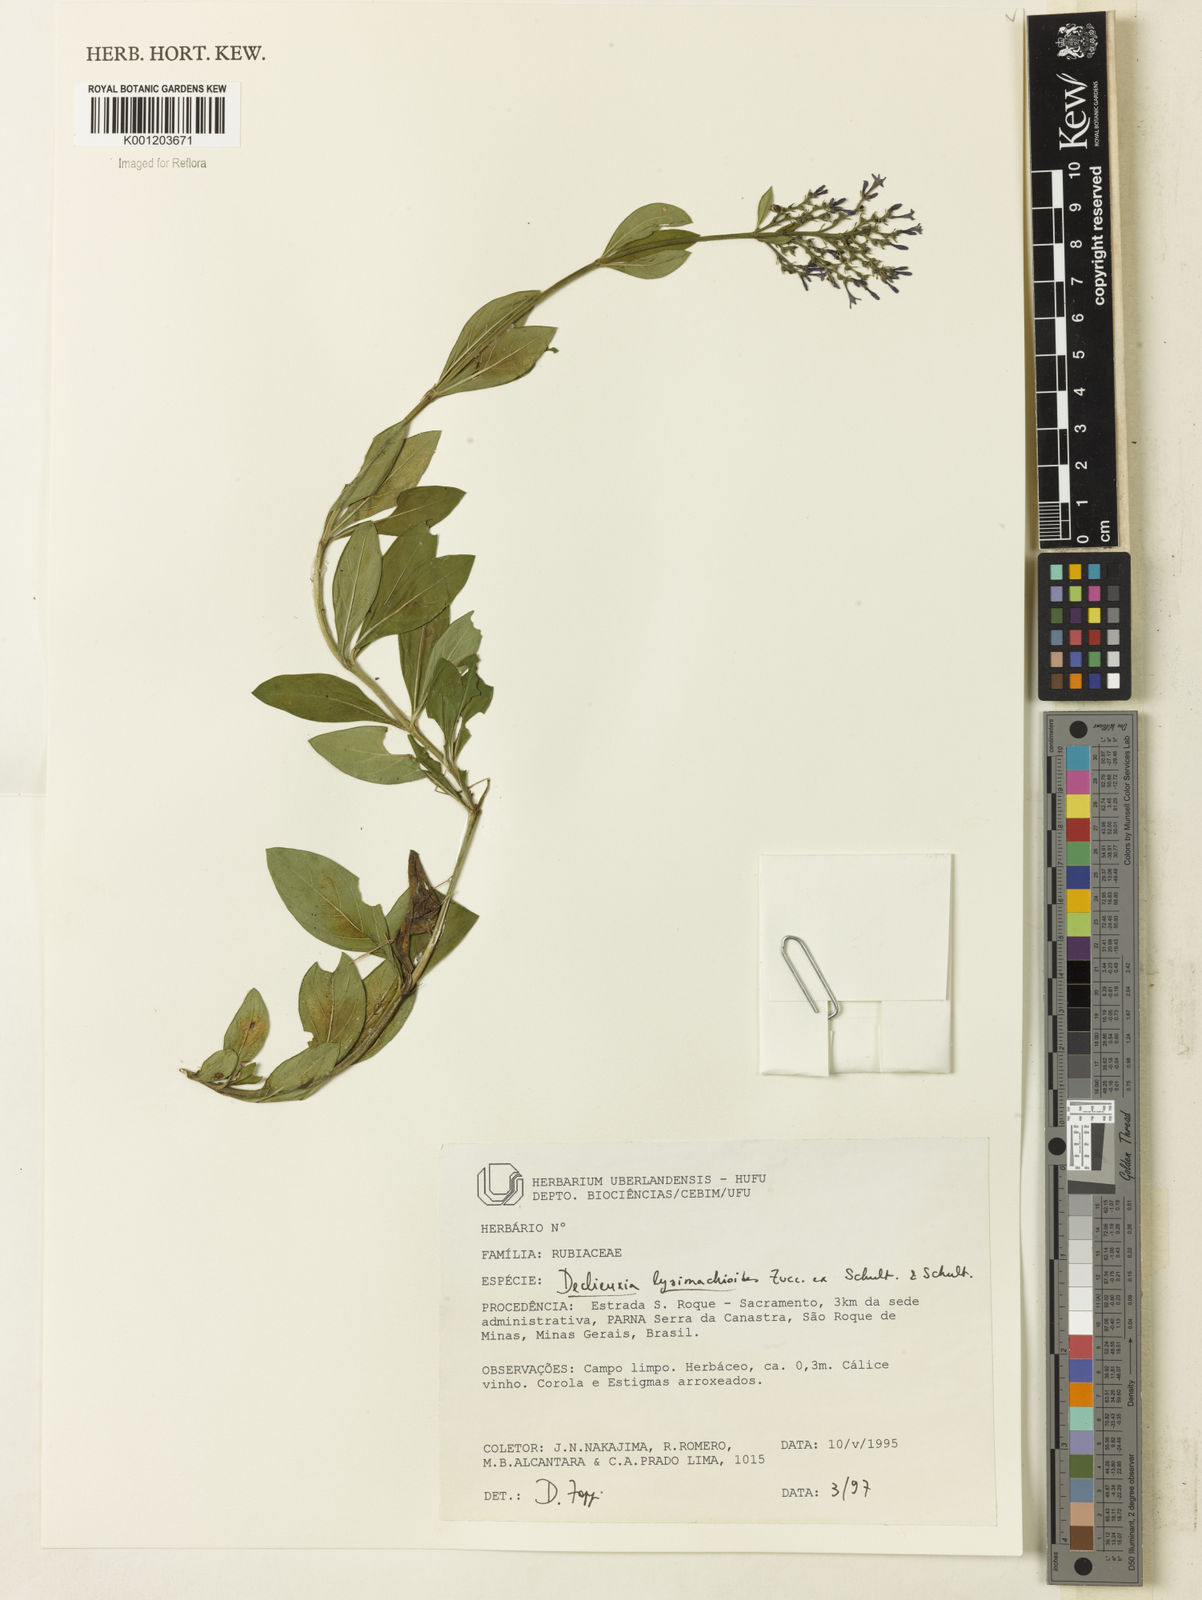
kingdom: Plantae
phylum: Tracheophyta
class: Magnoliopsida
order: Gentianales
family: Rubiaceae
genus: Declieuxia
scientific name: Declieuxia
